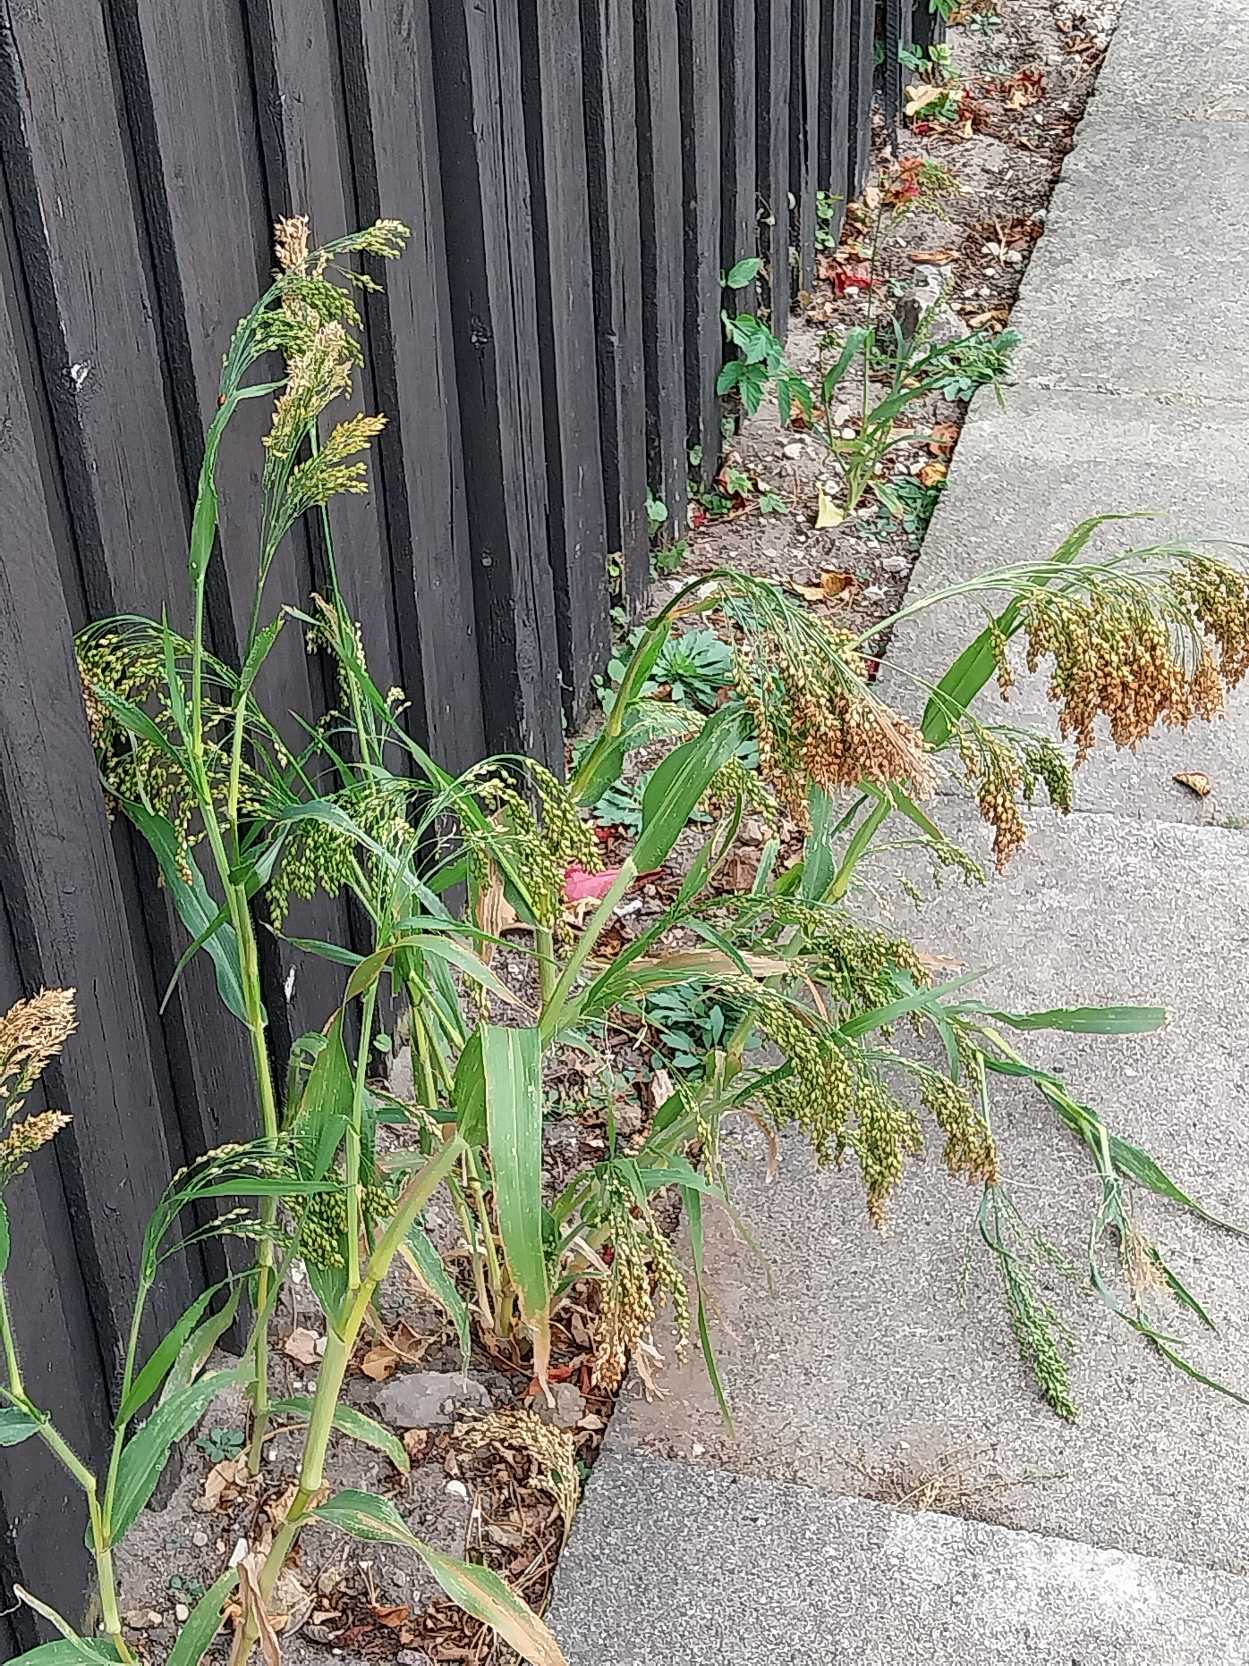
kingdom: Plantae
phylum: Tracheophyta
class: Liliopsida
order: Poales
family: Poaceae
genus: Panicum
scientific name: Panicum miliaceum
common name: Almindelig hirse
